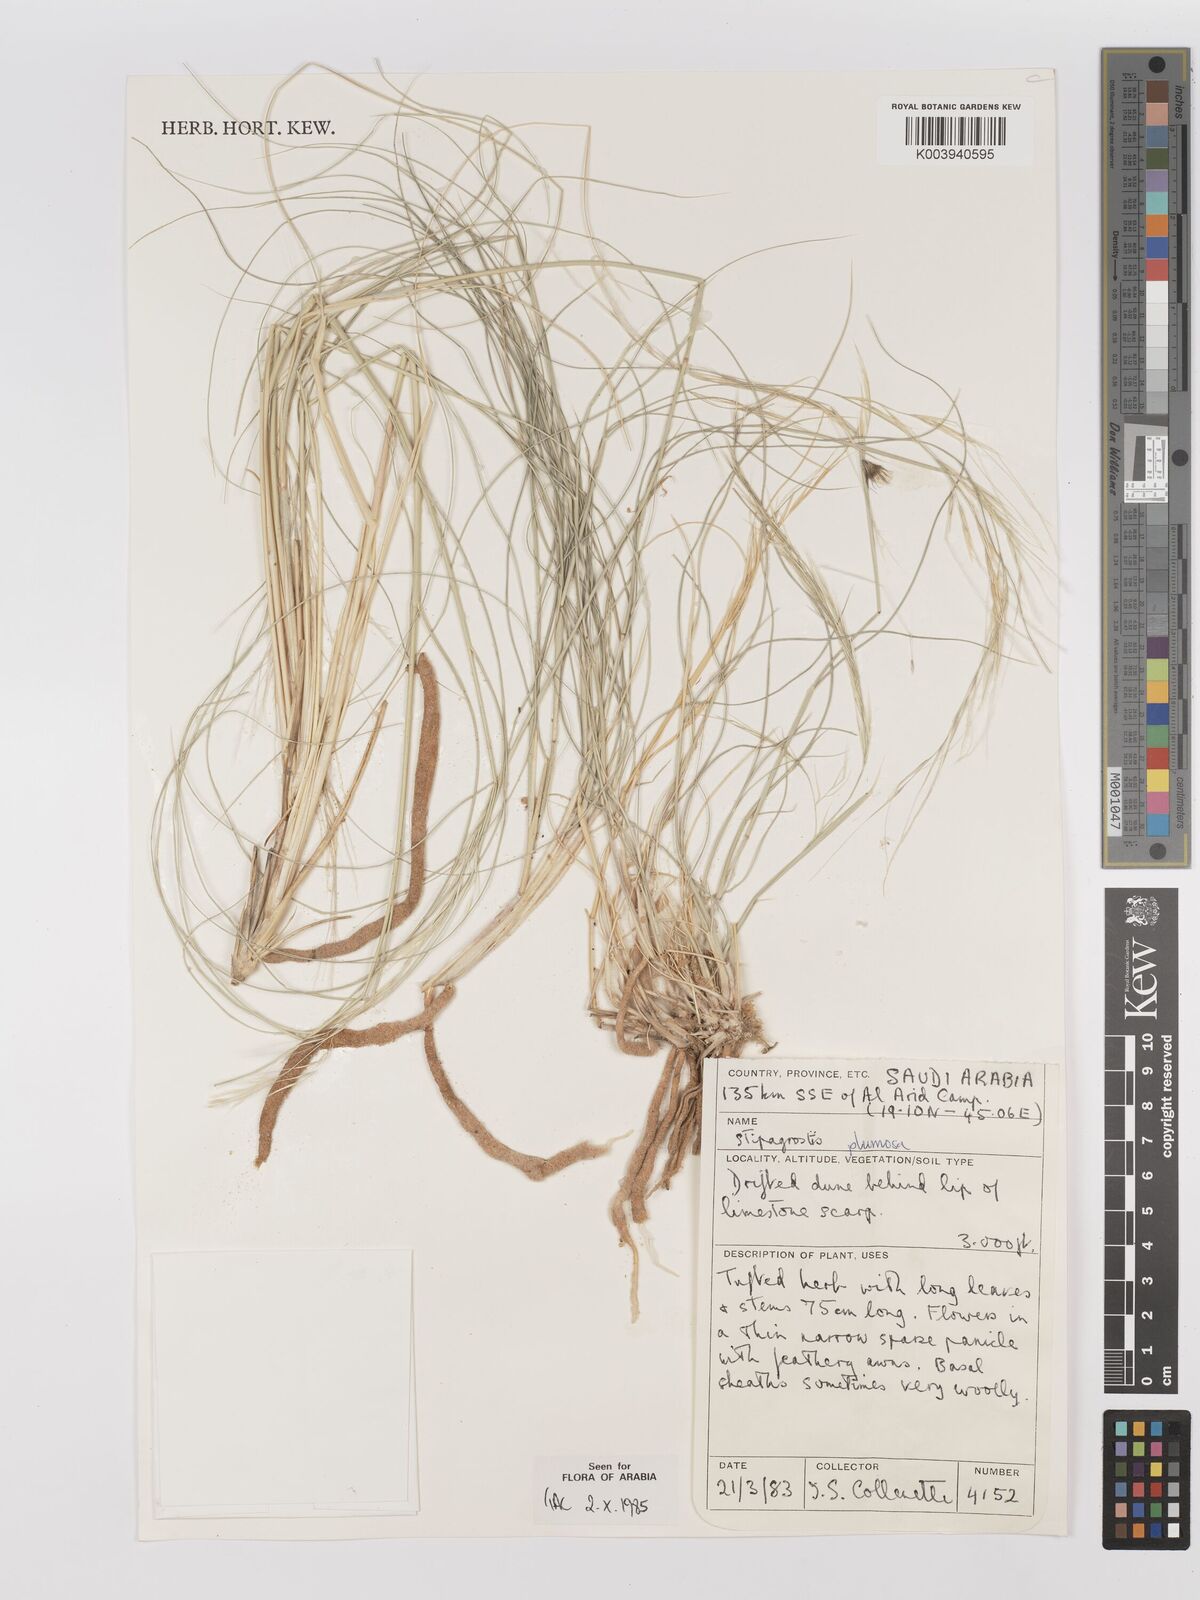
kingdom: Plantae
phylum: Tracheophyta
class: Liliopsida
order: Poales
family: Poaceae
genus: Stipagrostis
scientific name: Stipagrostis plumosa
